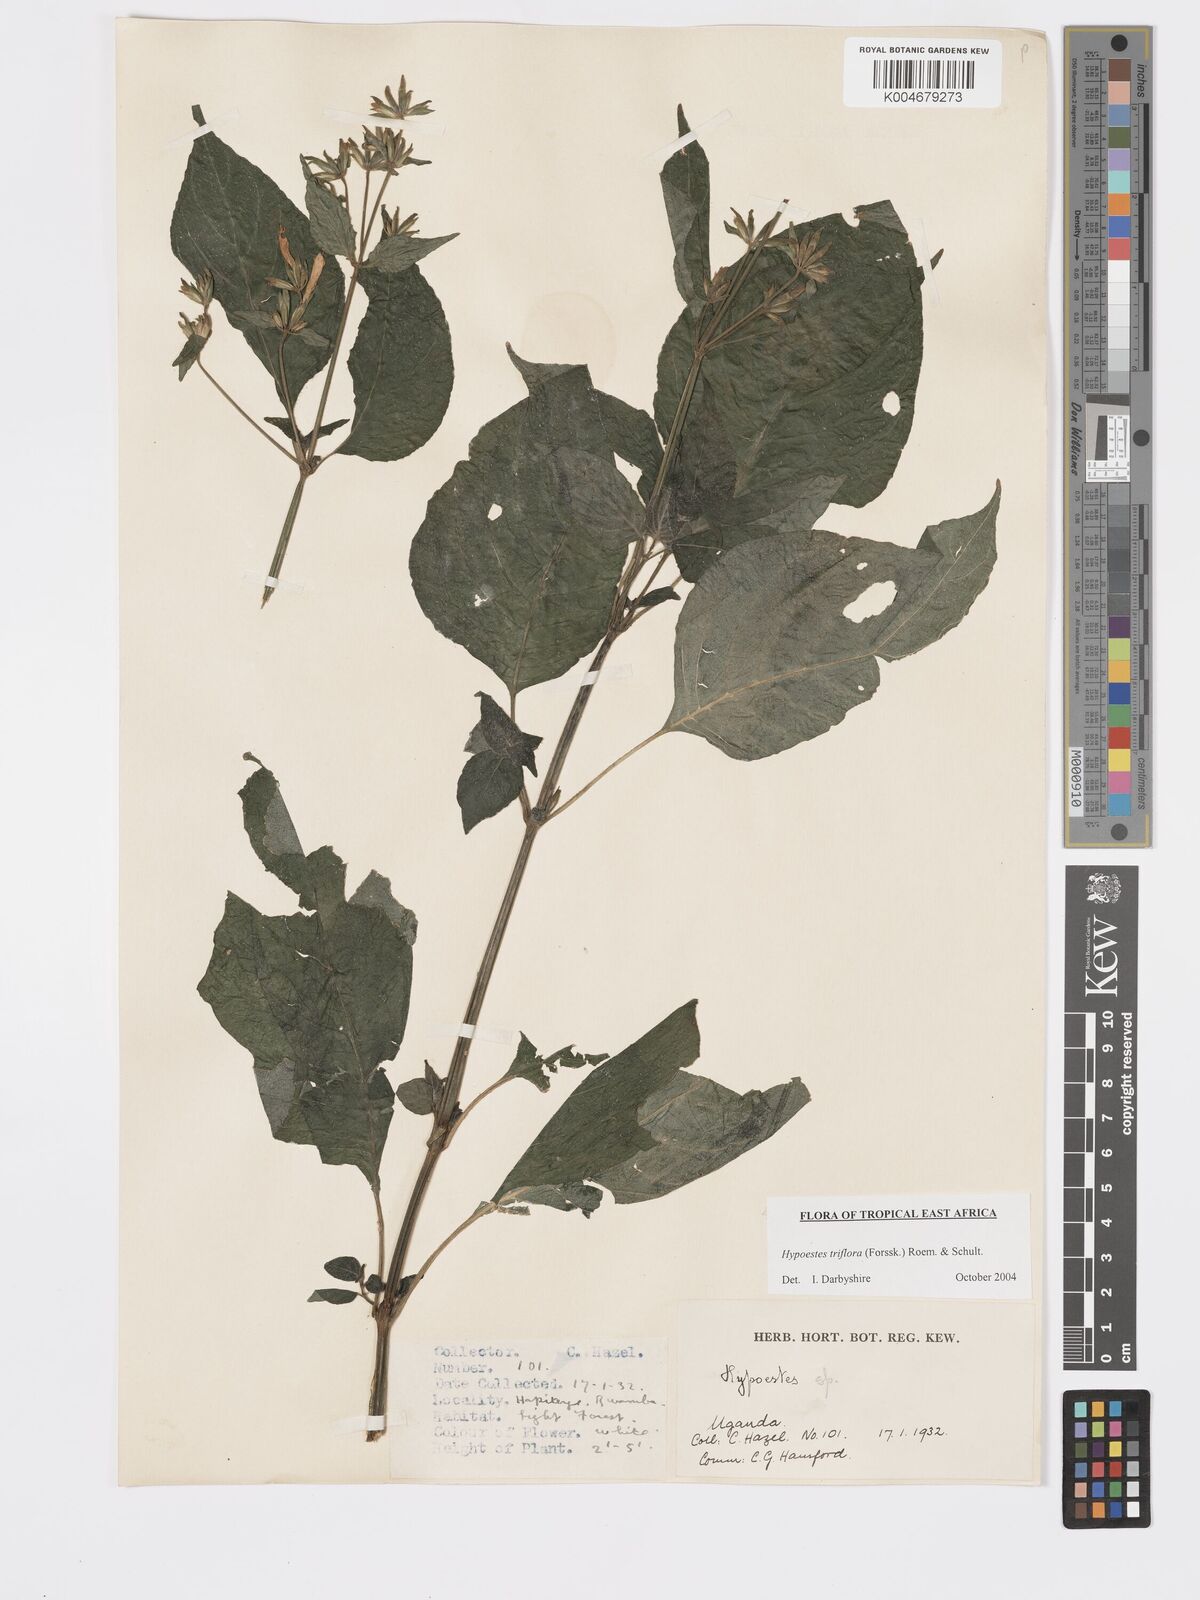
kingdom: Plantae
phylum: Tracheophyta
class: Magnoliopsida
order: Lamiales
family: Acanthaceae
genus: Hypoestes
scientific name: Hypoestes triflora
